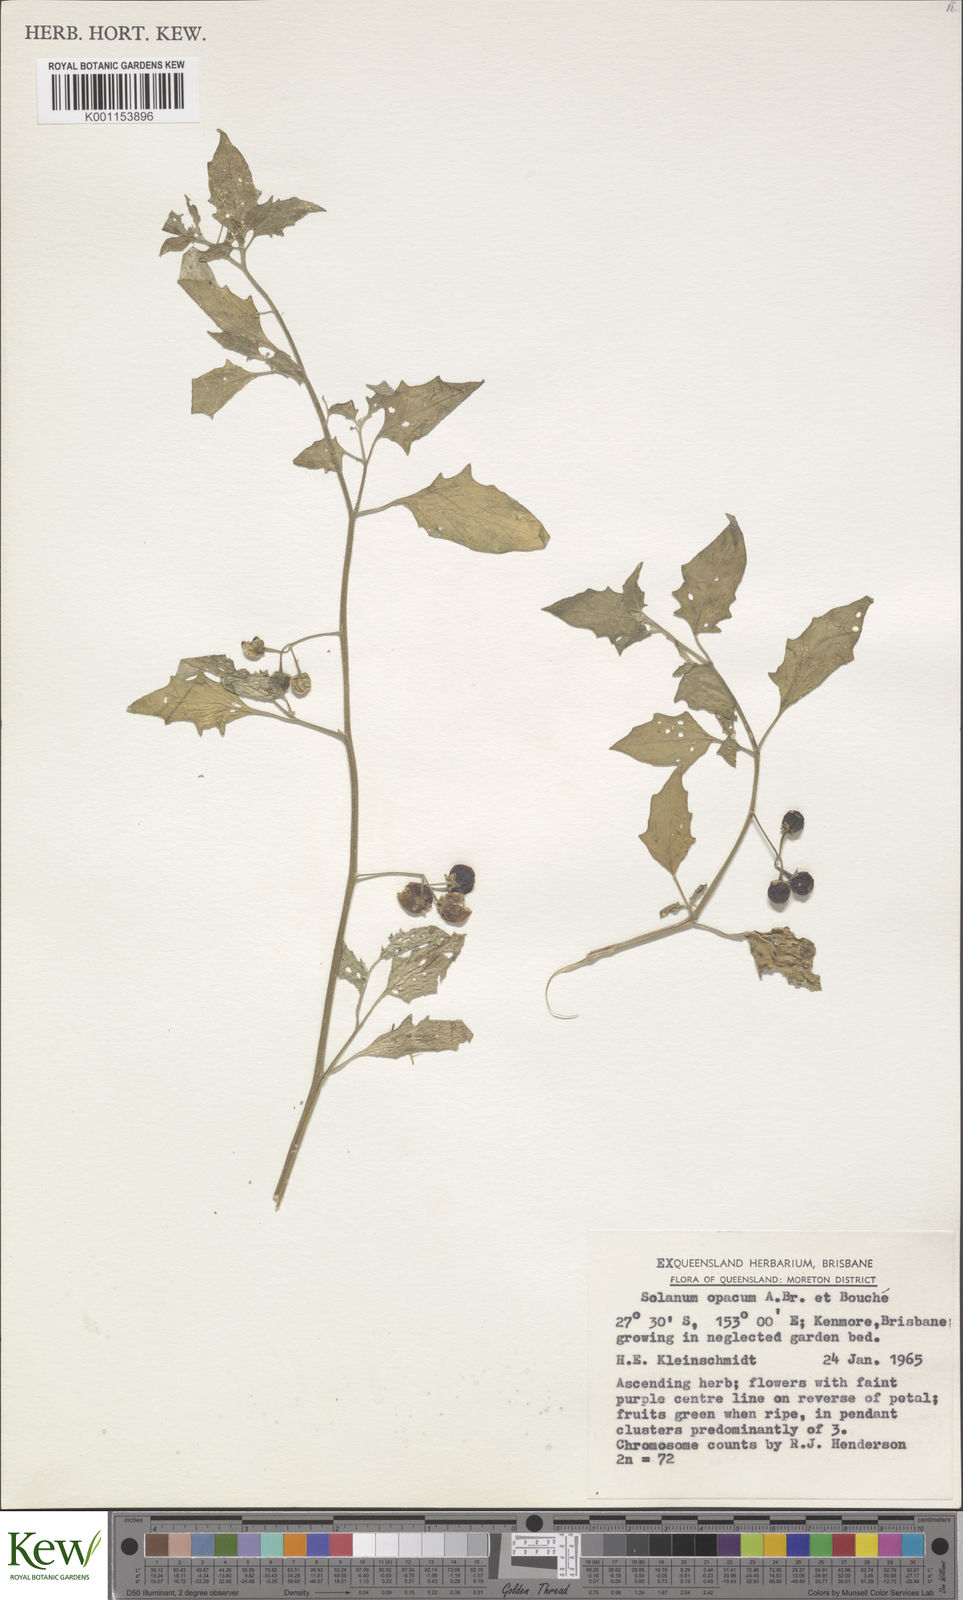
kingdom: Plantae
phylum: Tracheophyta
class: Magnoliopsida
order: Solanales
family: Solanaceae
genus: Solanum
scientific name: Solanum
